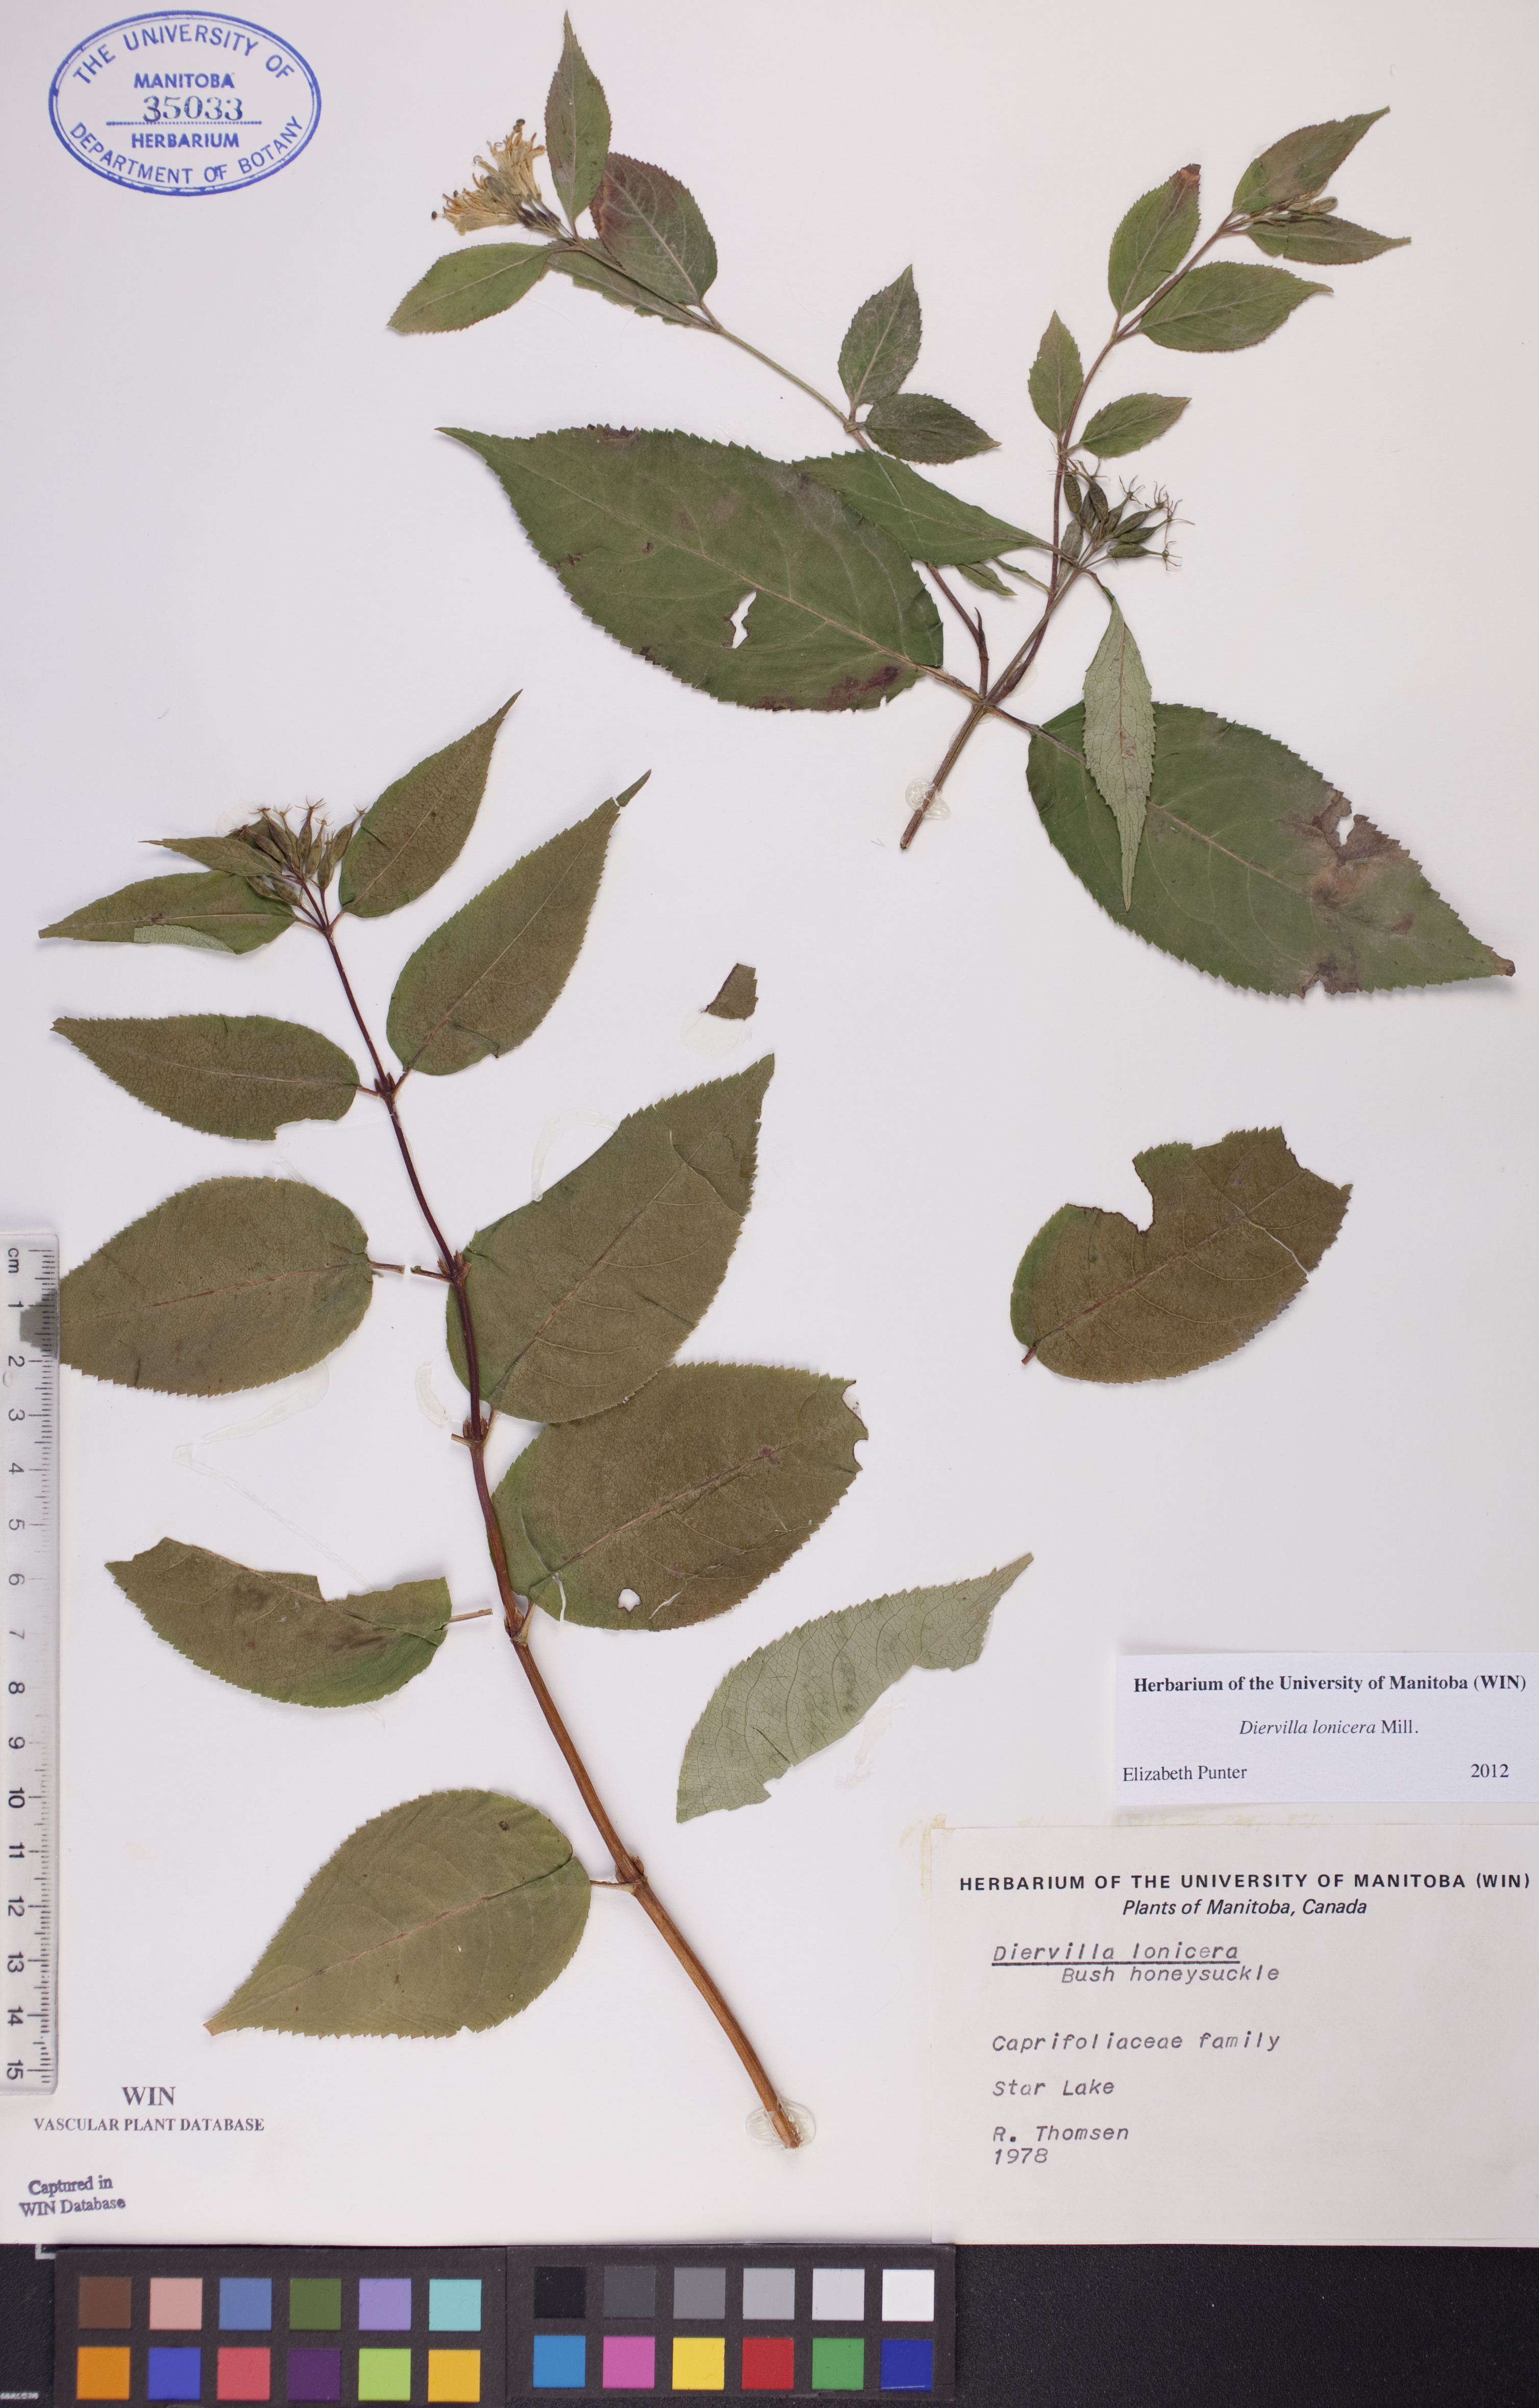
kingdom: Plantae
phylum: Tracheophyta
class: Magnoliopsida
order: Dipsacales
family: Caprifoliaceae
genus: Diervilla
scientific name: Diervilla lonicera
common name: Bush-honeysuckle
